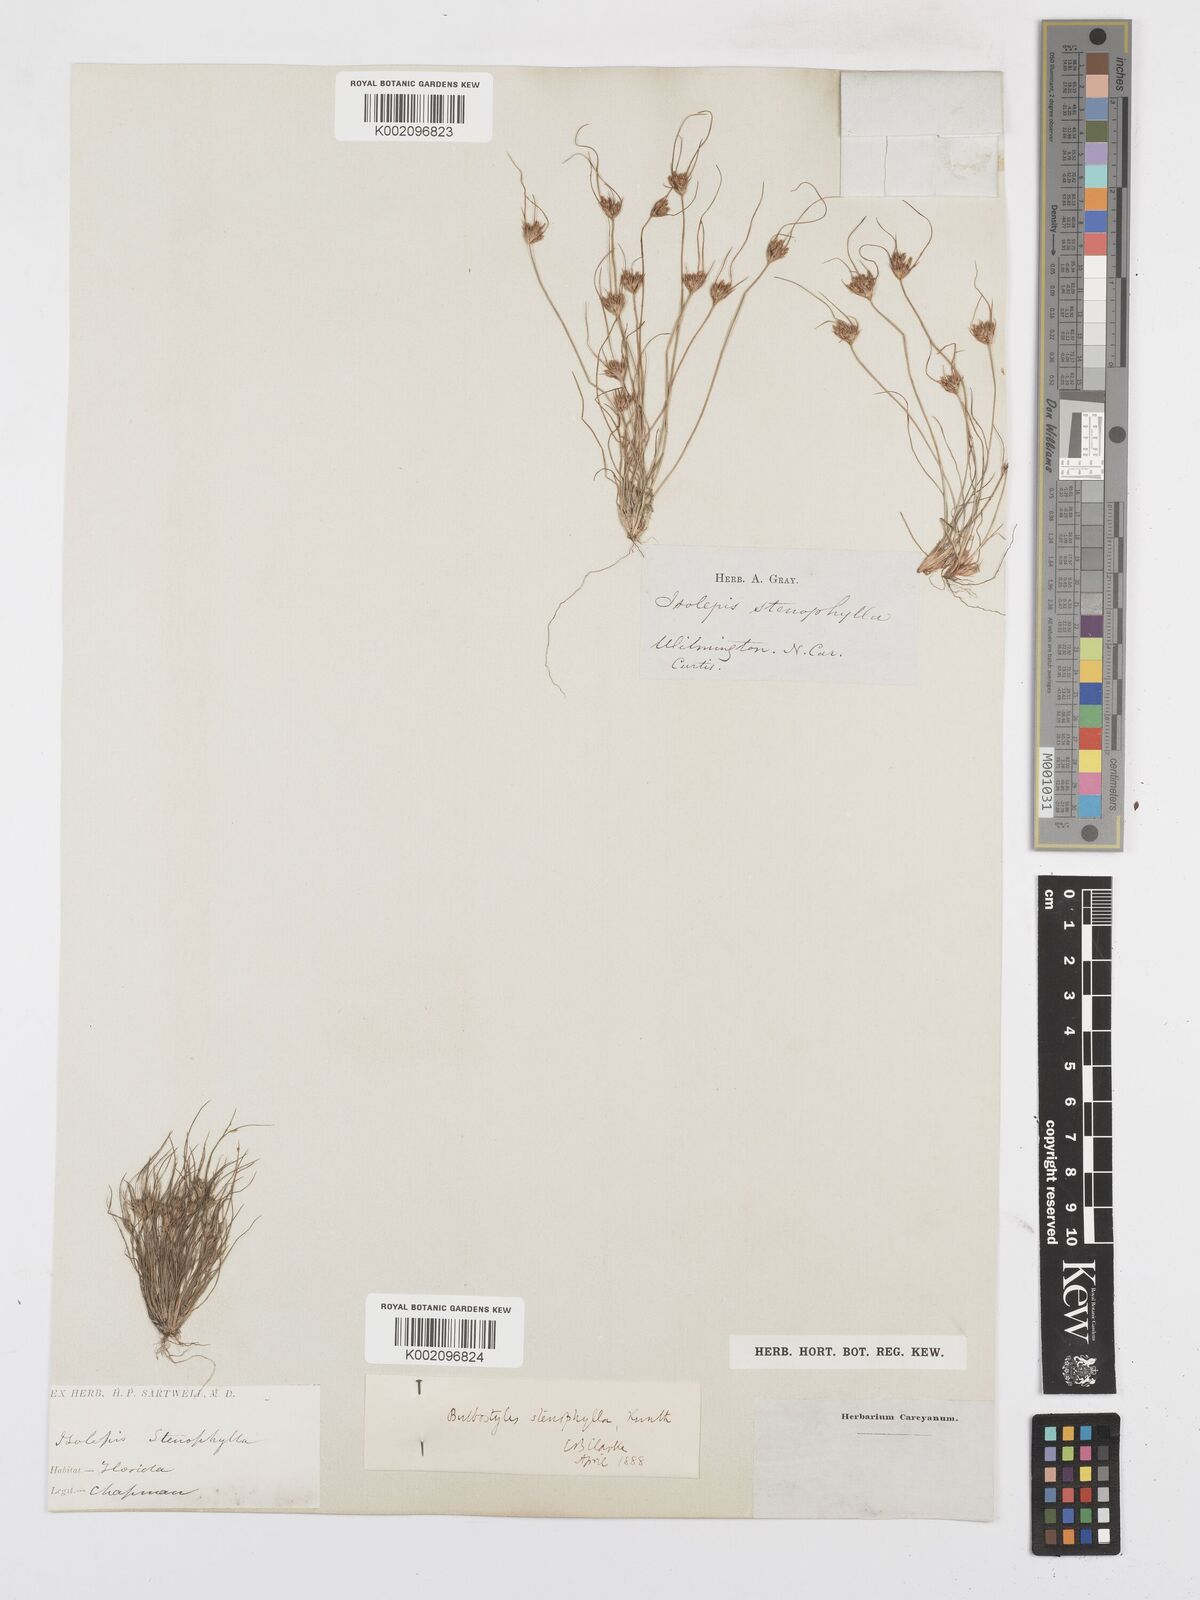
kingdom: Plantae
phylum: Tracheophyta
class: Liliopsida
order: Poales
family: Cyperaceae
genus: Bulbostylis
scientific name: Bulbostylis rarissima
